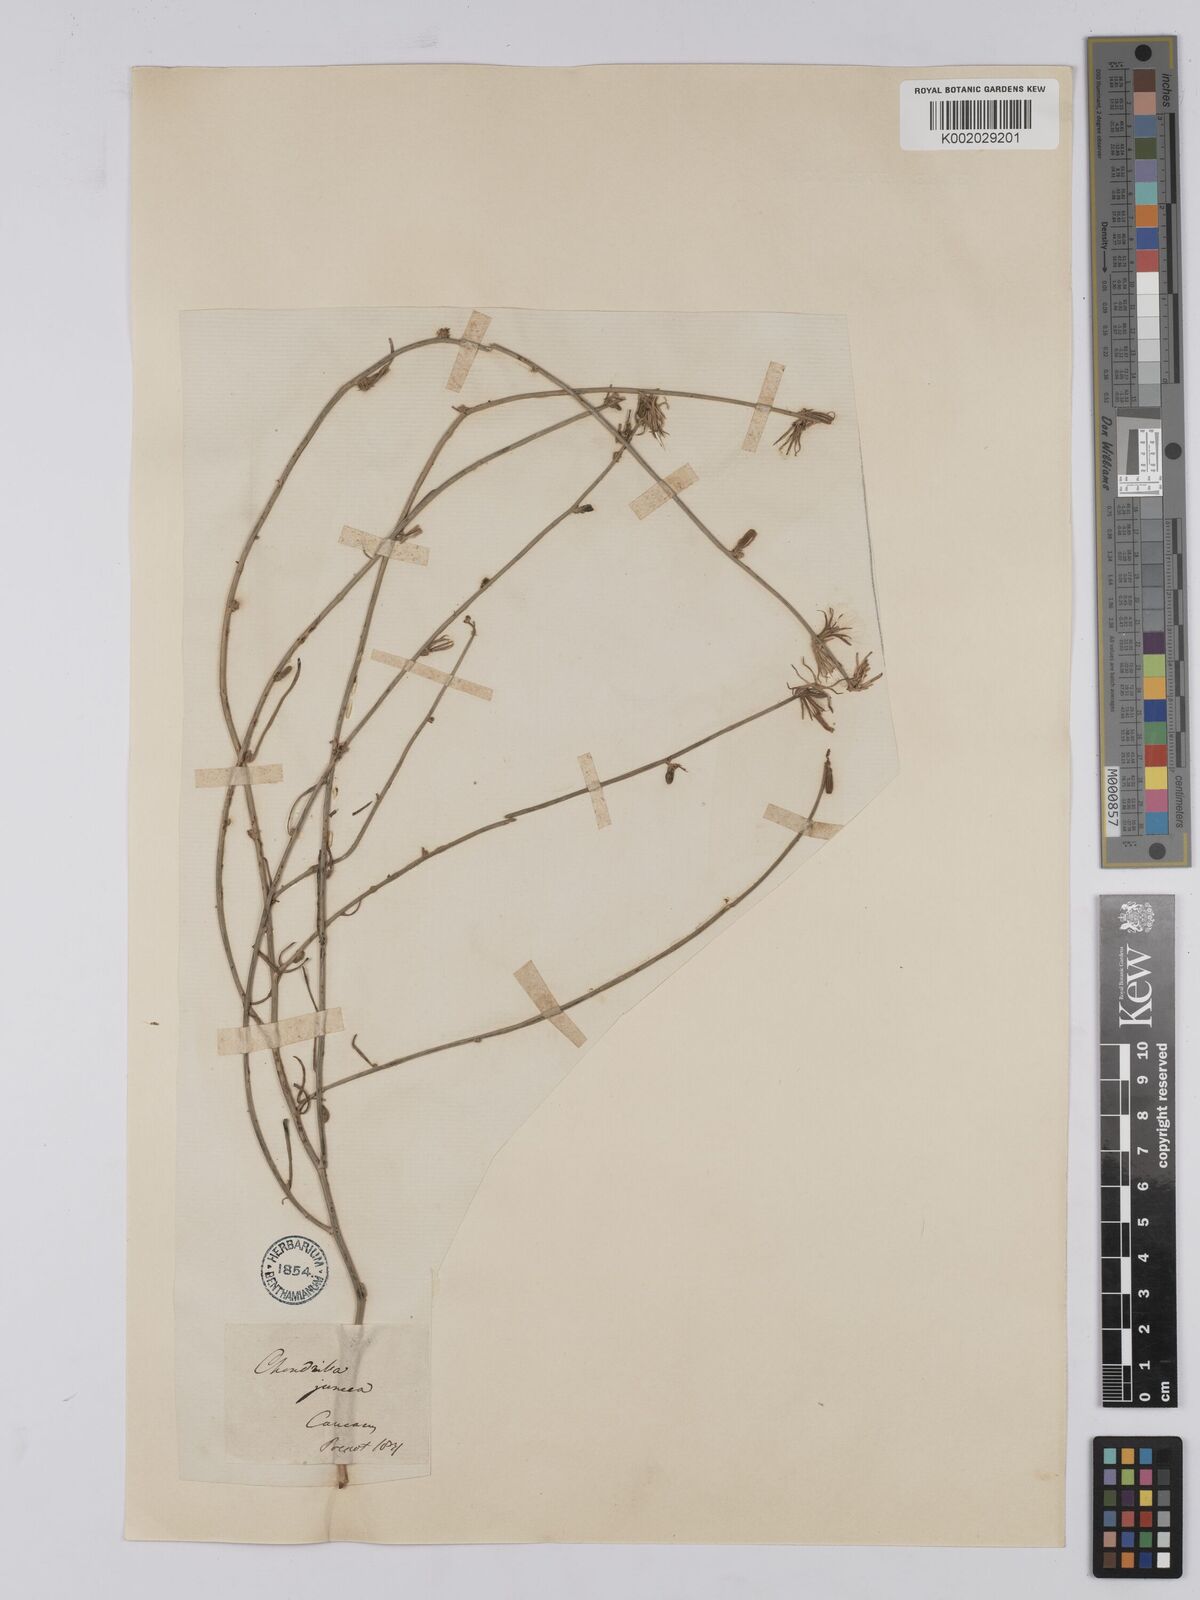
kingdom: Plantae
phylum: Tracheophyta
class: Magnoliopsida
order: Asterales
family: Asteraceae
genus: Chondrilla
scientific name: Chondrilla juncea
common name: Skeleton weed
